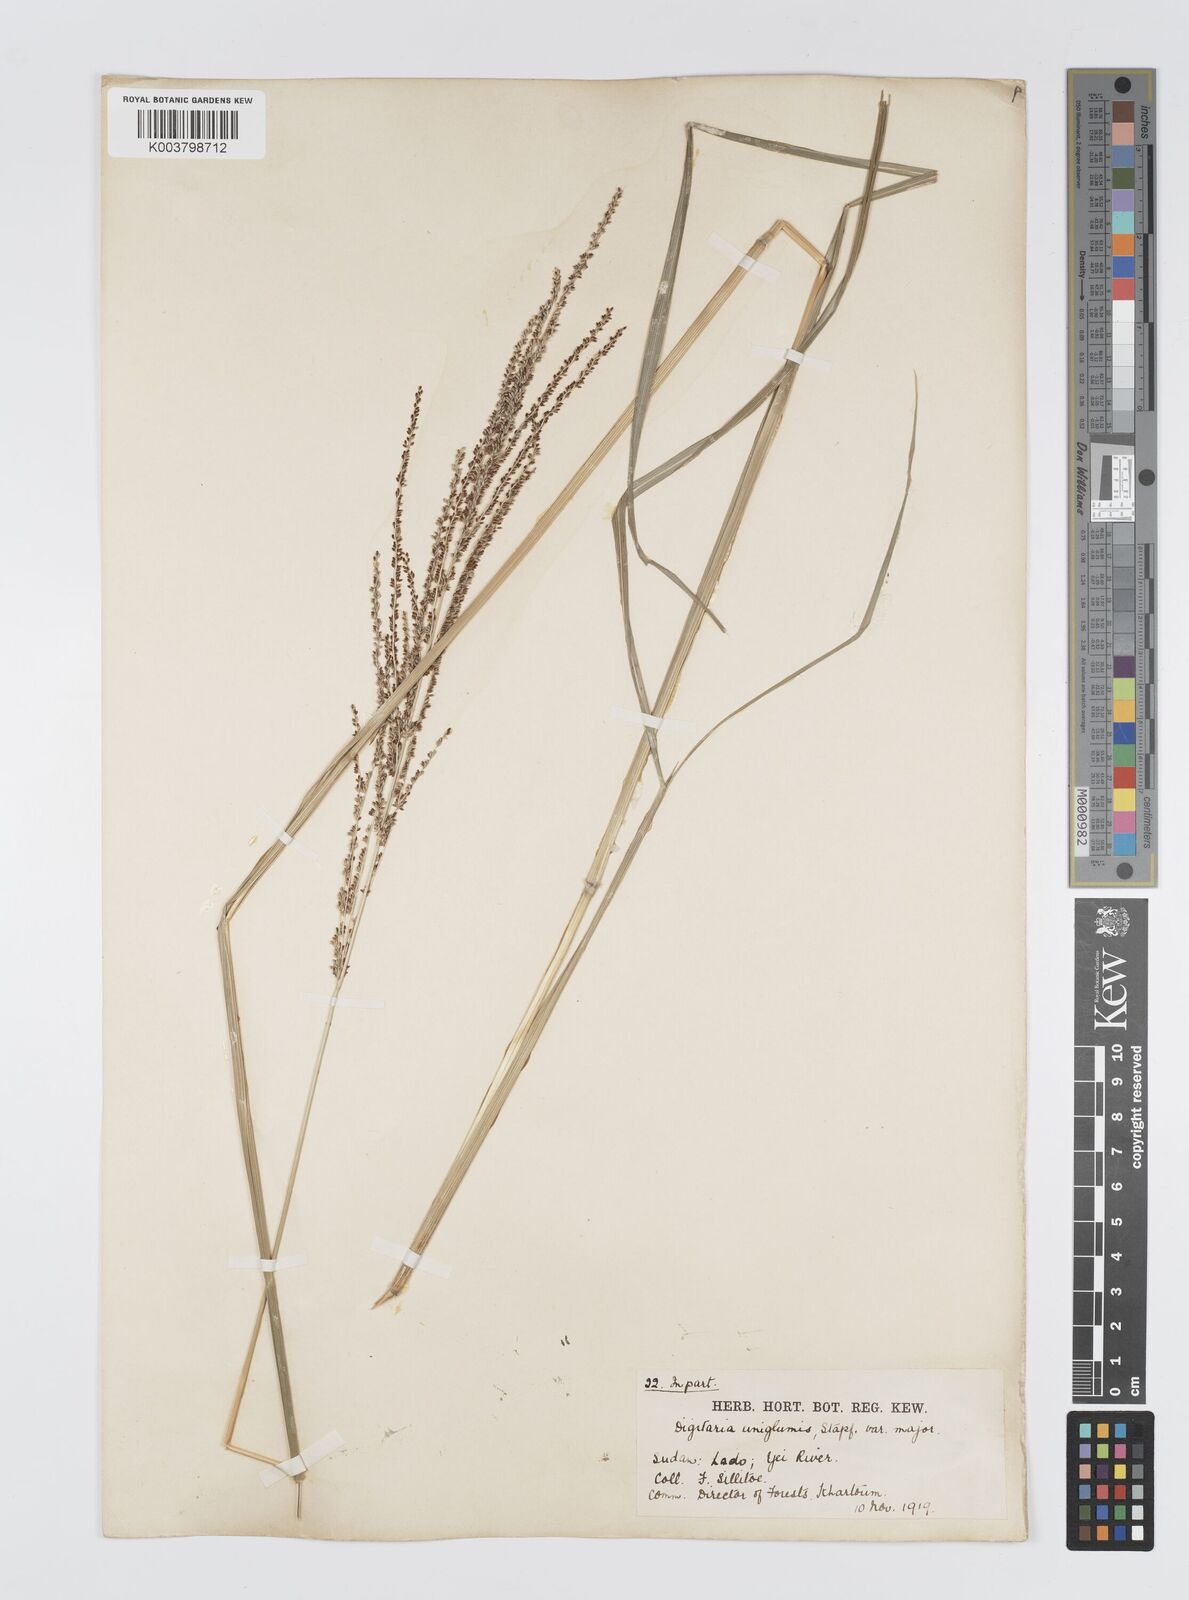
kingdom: Plantae
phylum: Tracheophyta
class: Liliopsida
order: Poales
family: Poaceae
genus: Digitaria
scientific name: Digitaria diagonalis
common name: Brown-seed finger grass
